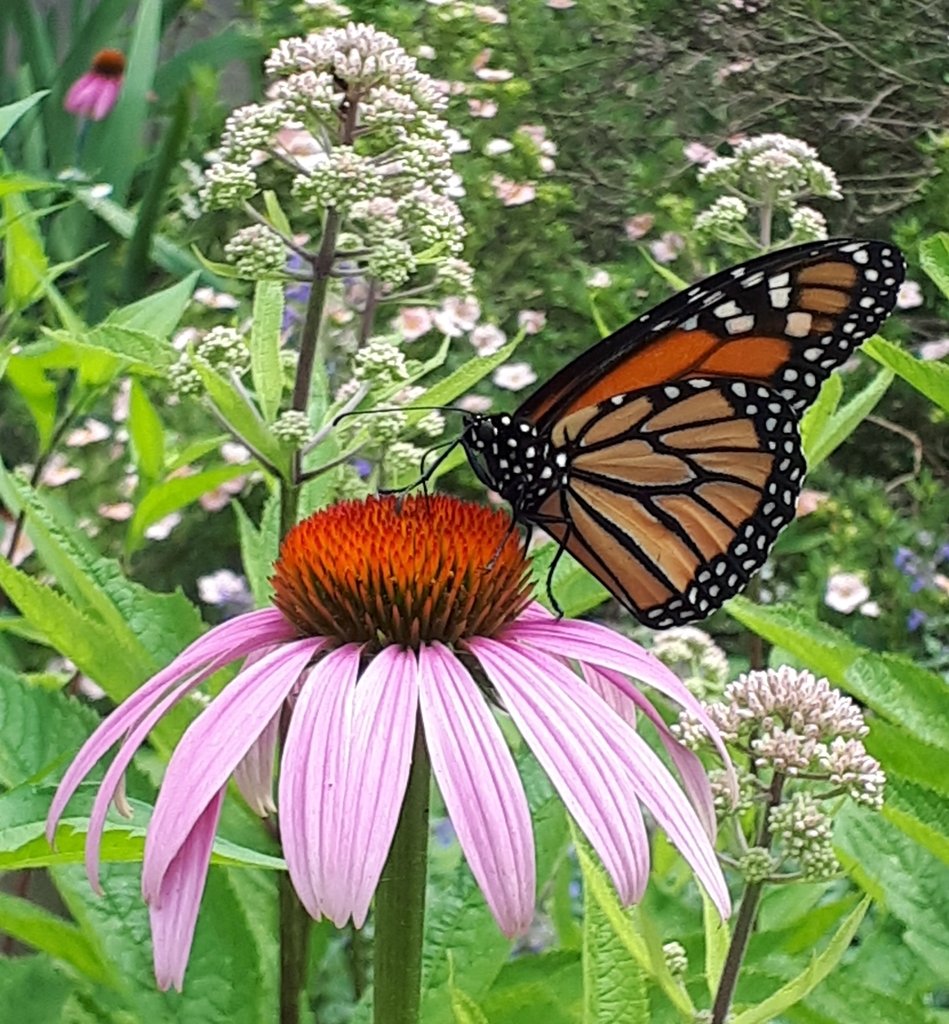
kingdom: Animalia
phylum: Arthropoda
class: Insecta
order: Lepidoptera
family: Nymphalidae
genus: Danaus
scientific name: Danaus plexippus
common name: Monarch
